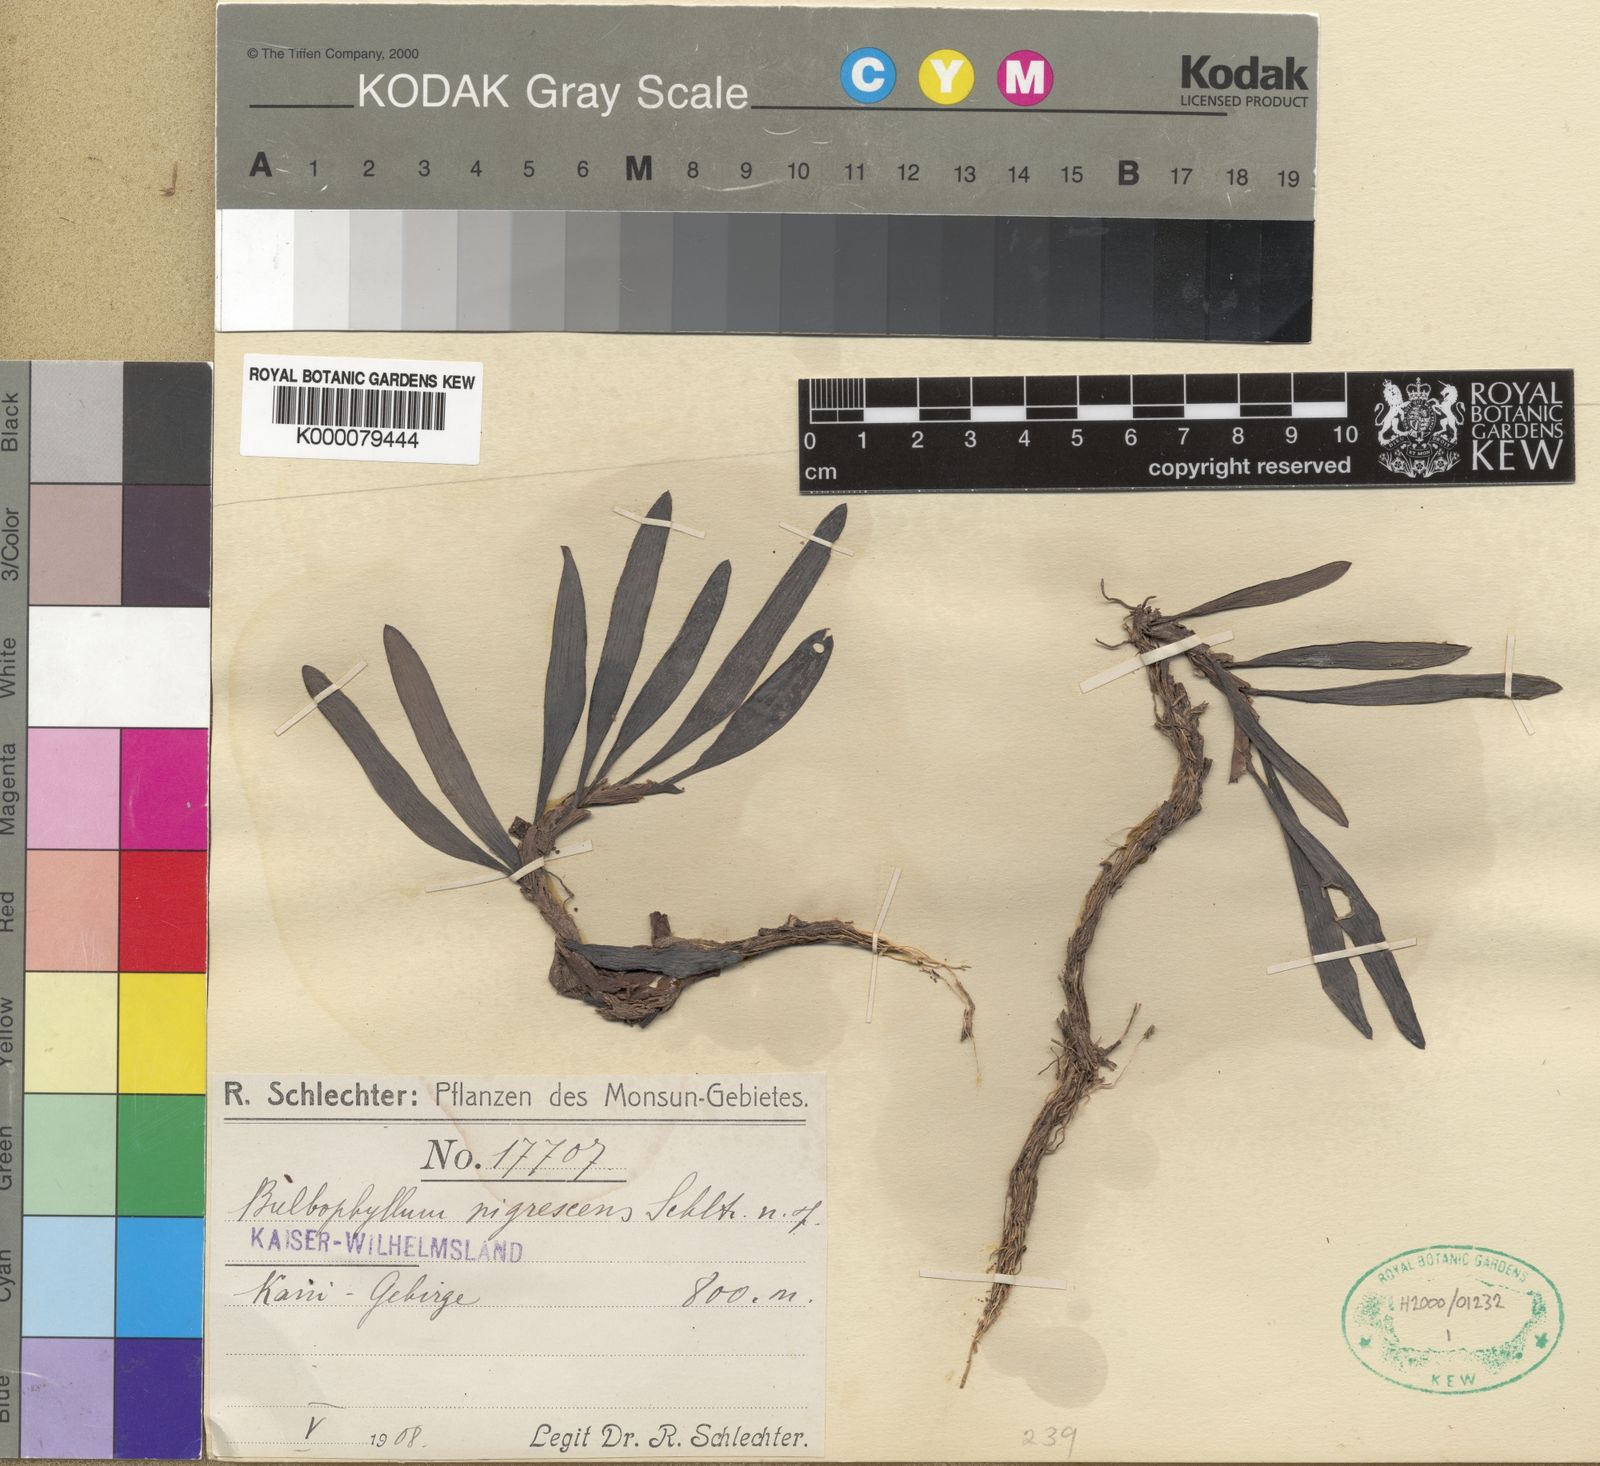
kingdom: Plantae
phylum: Tracheophyta
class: Liliopsida
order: Asparagales
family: Orchidaceae
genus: Bulbophyllum
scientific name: Bulbophyllum rubromaculatum
